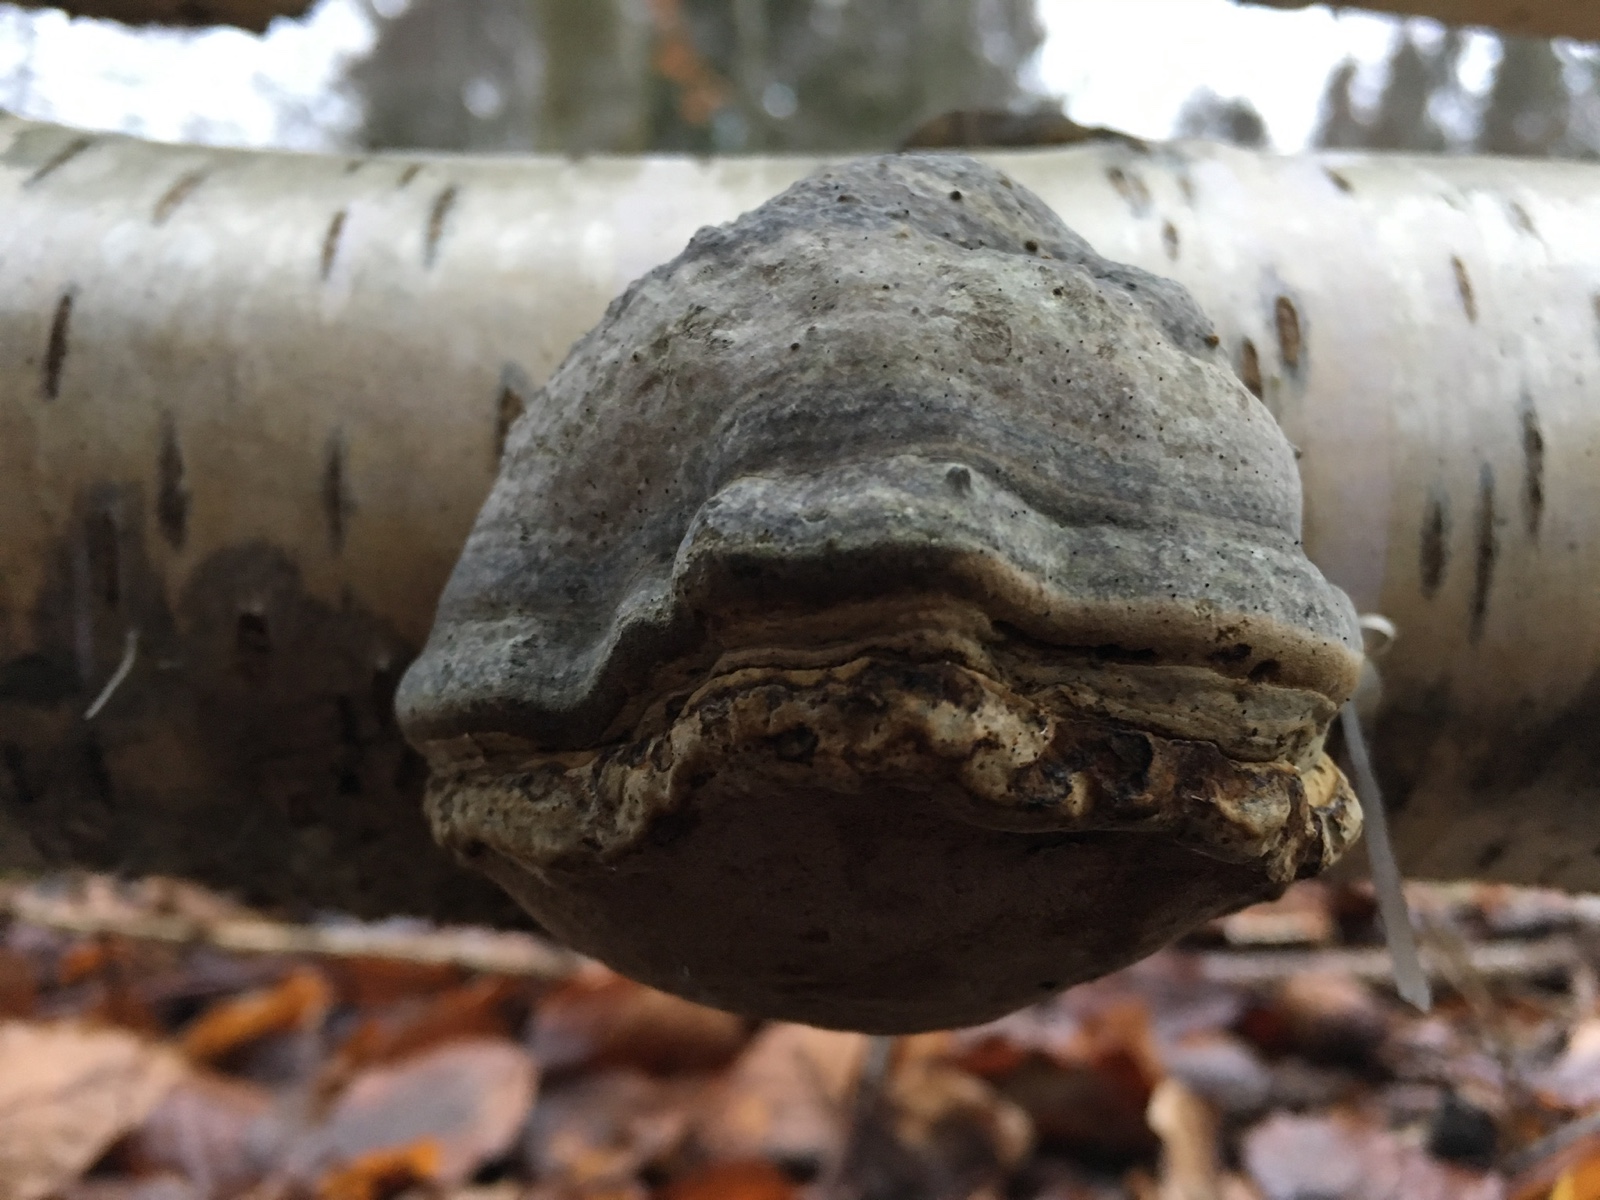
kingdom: Fungi
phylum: Basidiomycota
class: Agaricomycetes
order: Polyporales
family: Polyporaceae
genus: Fomes
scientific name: Fomes fomentarius
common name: tøndersvamp
